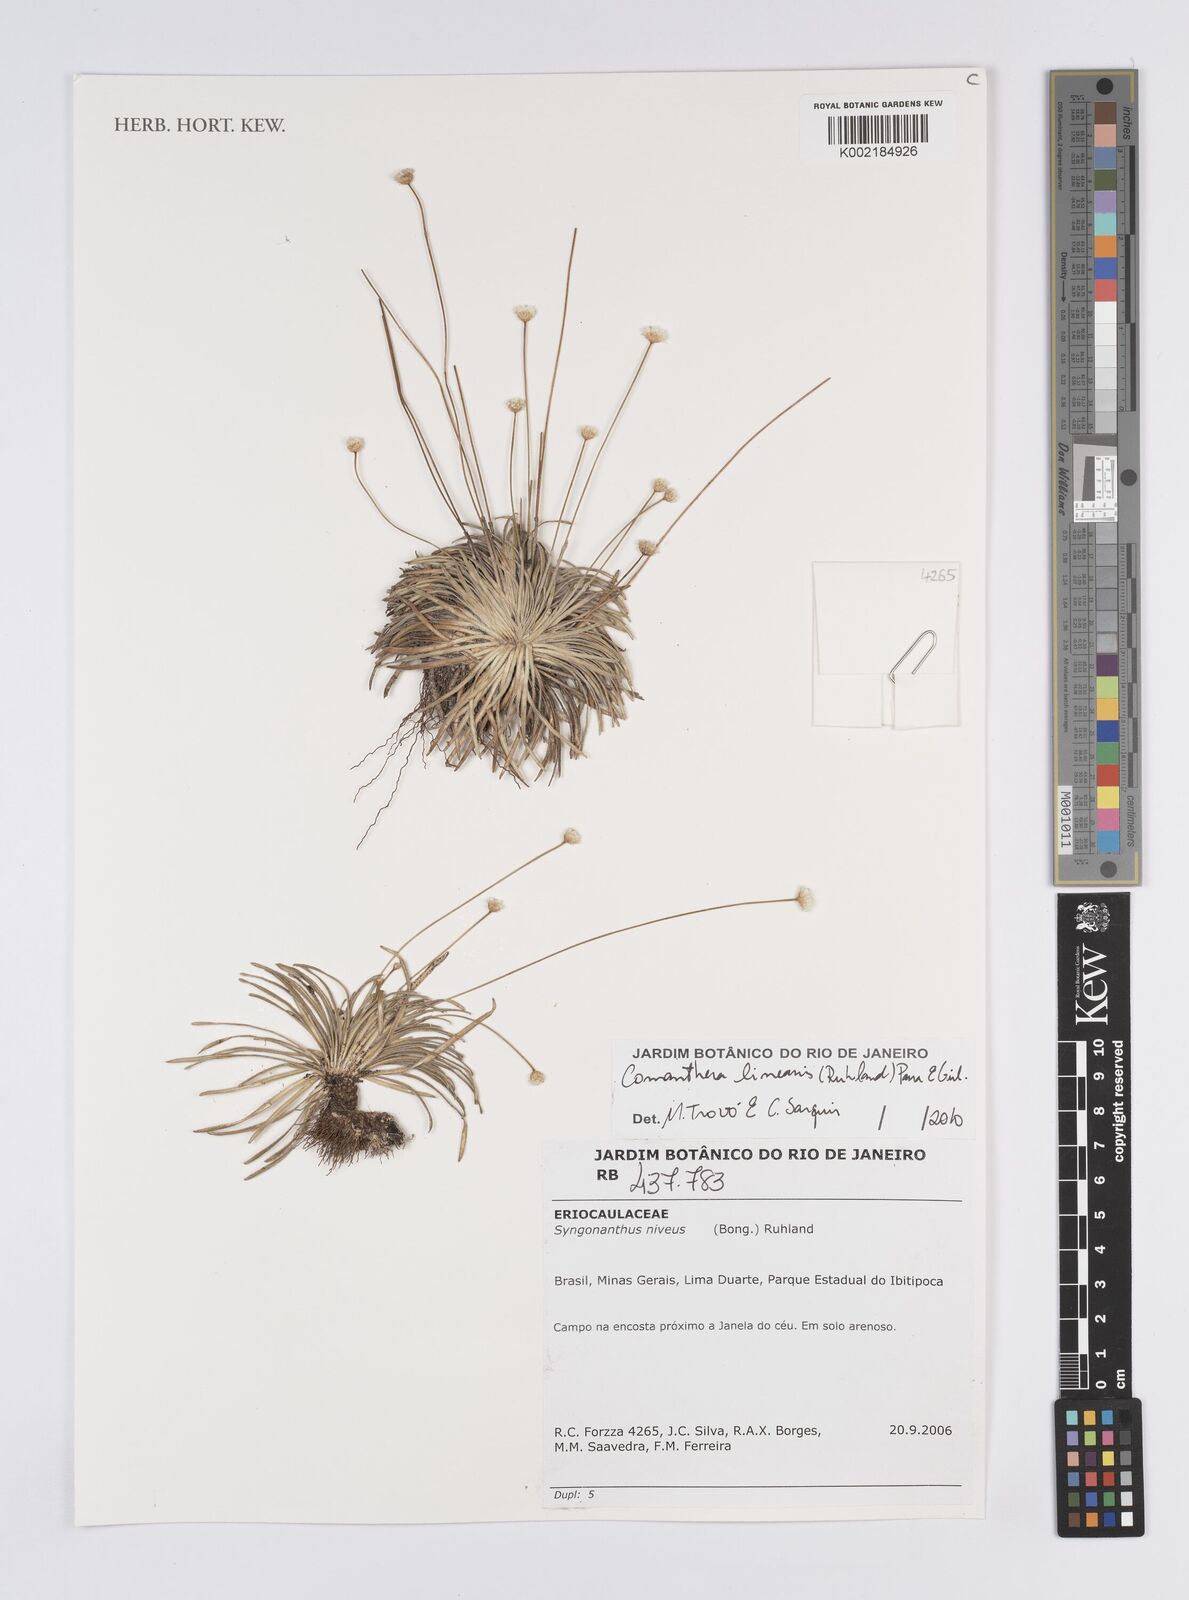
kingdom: Plantae
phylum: Tracheophyta
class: Liliopsida
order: Poales
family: Eriocaulaceae
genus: Comanthera
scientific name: Comanthera caespitosa
